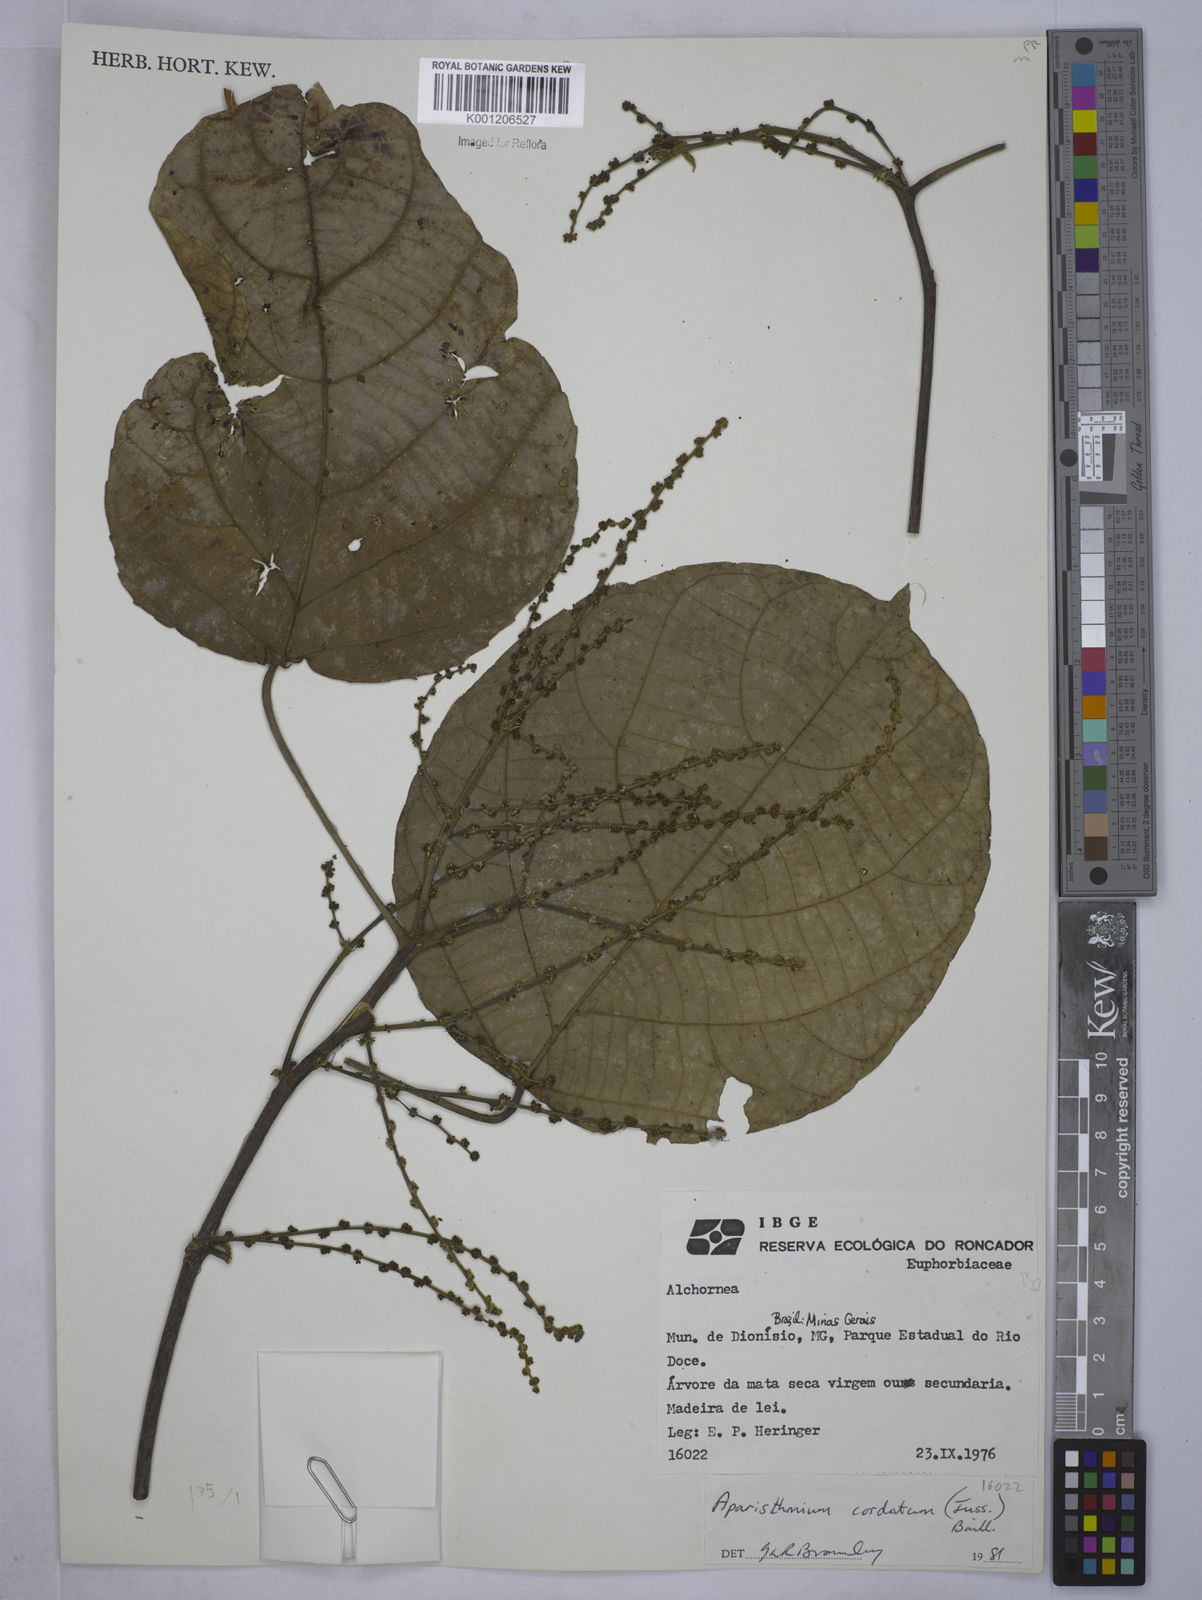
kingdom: Plantae
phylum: Tracheophyta
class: Magnoliopsida
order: Malpighiales
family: Euphorbiaceae
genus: Aparisthmium
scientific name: Aparisthmium cordatum
